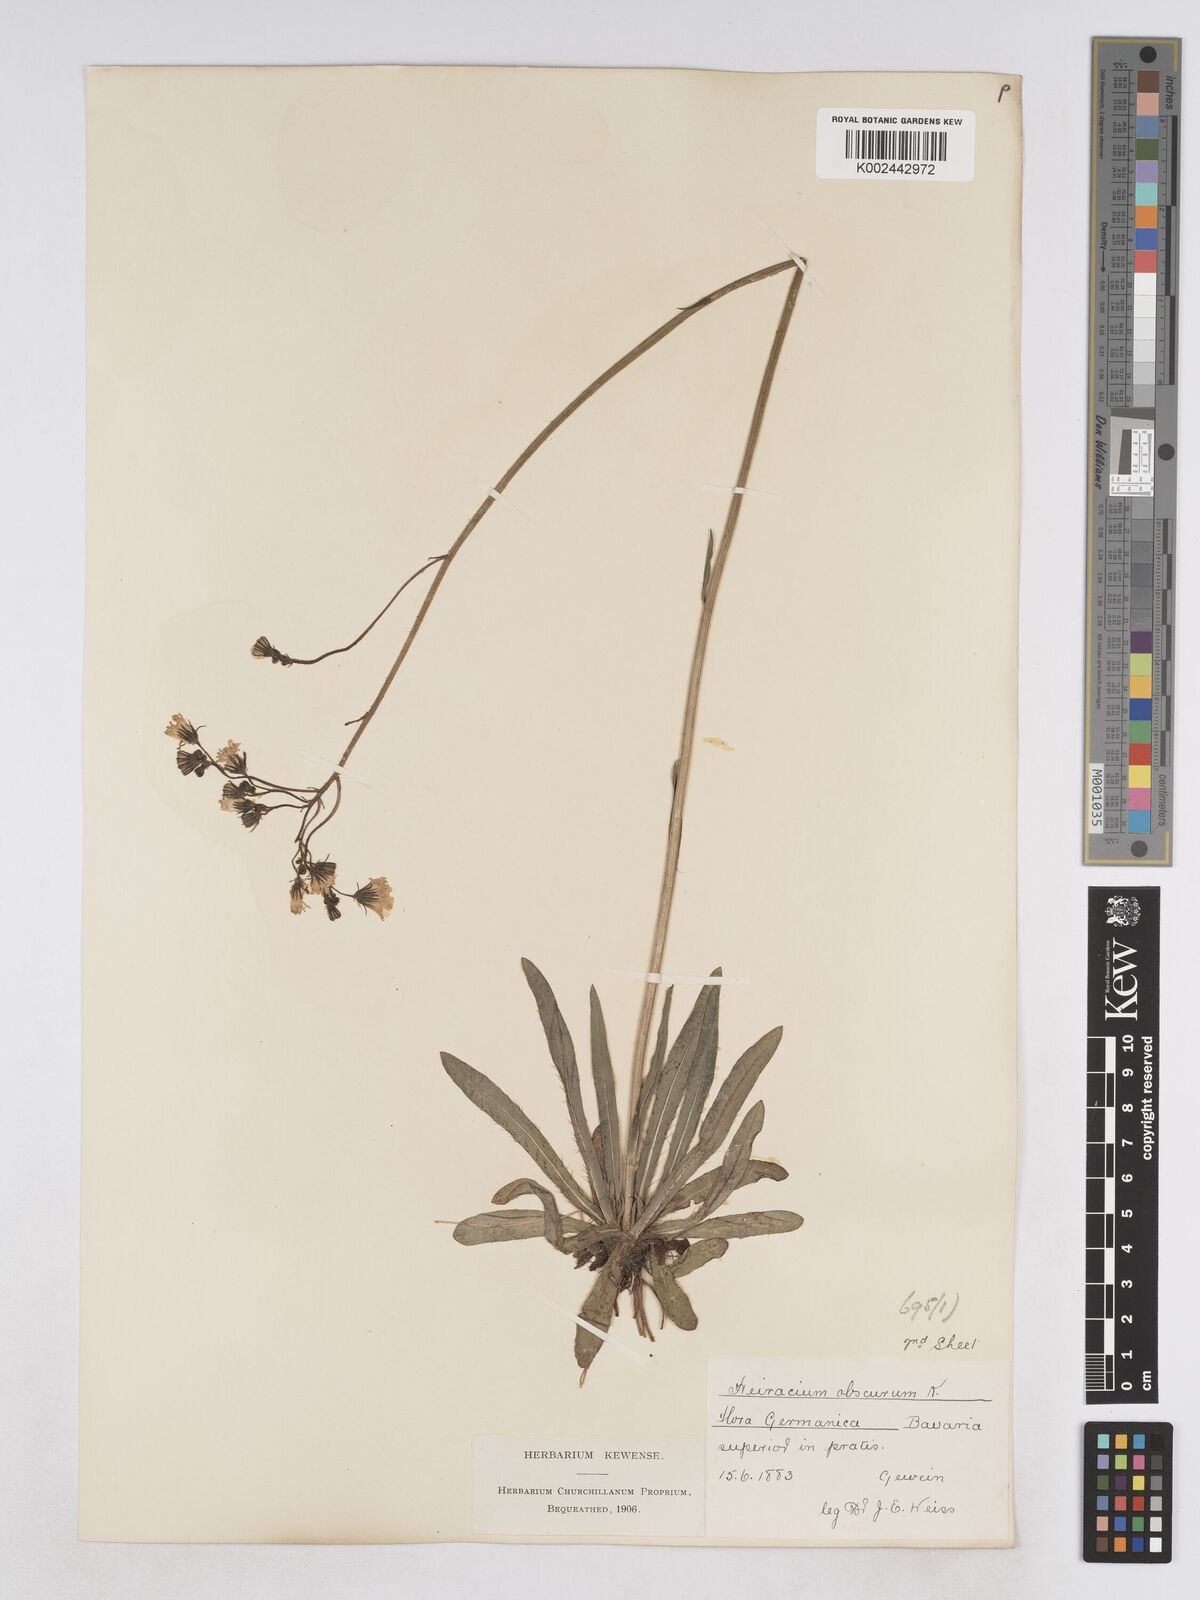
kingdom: Plantae
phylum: Tracheophyta
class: Magnoliopsida
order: Asterales
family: Asteraceae
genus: Pilosella
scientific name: Pilosella piloselloides
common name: Glaucous king-devil
